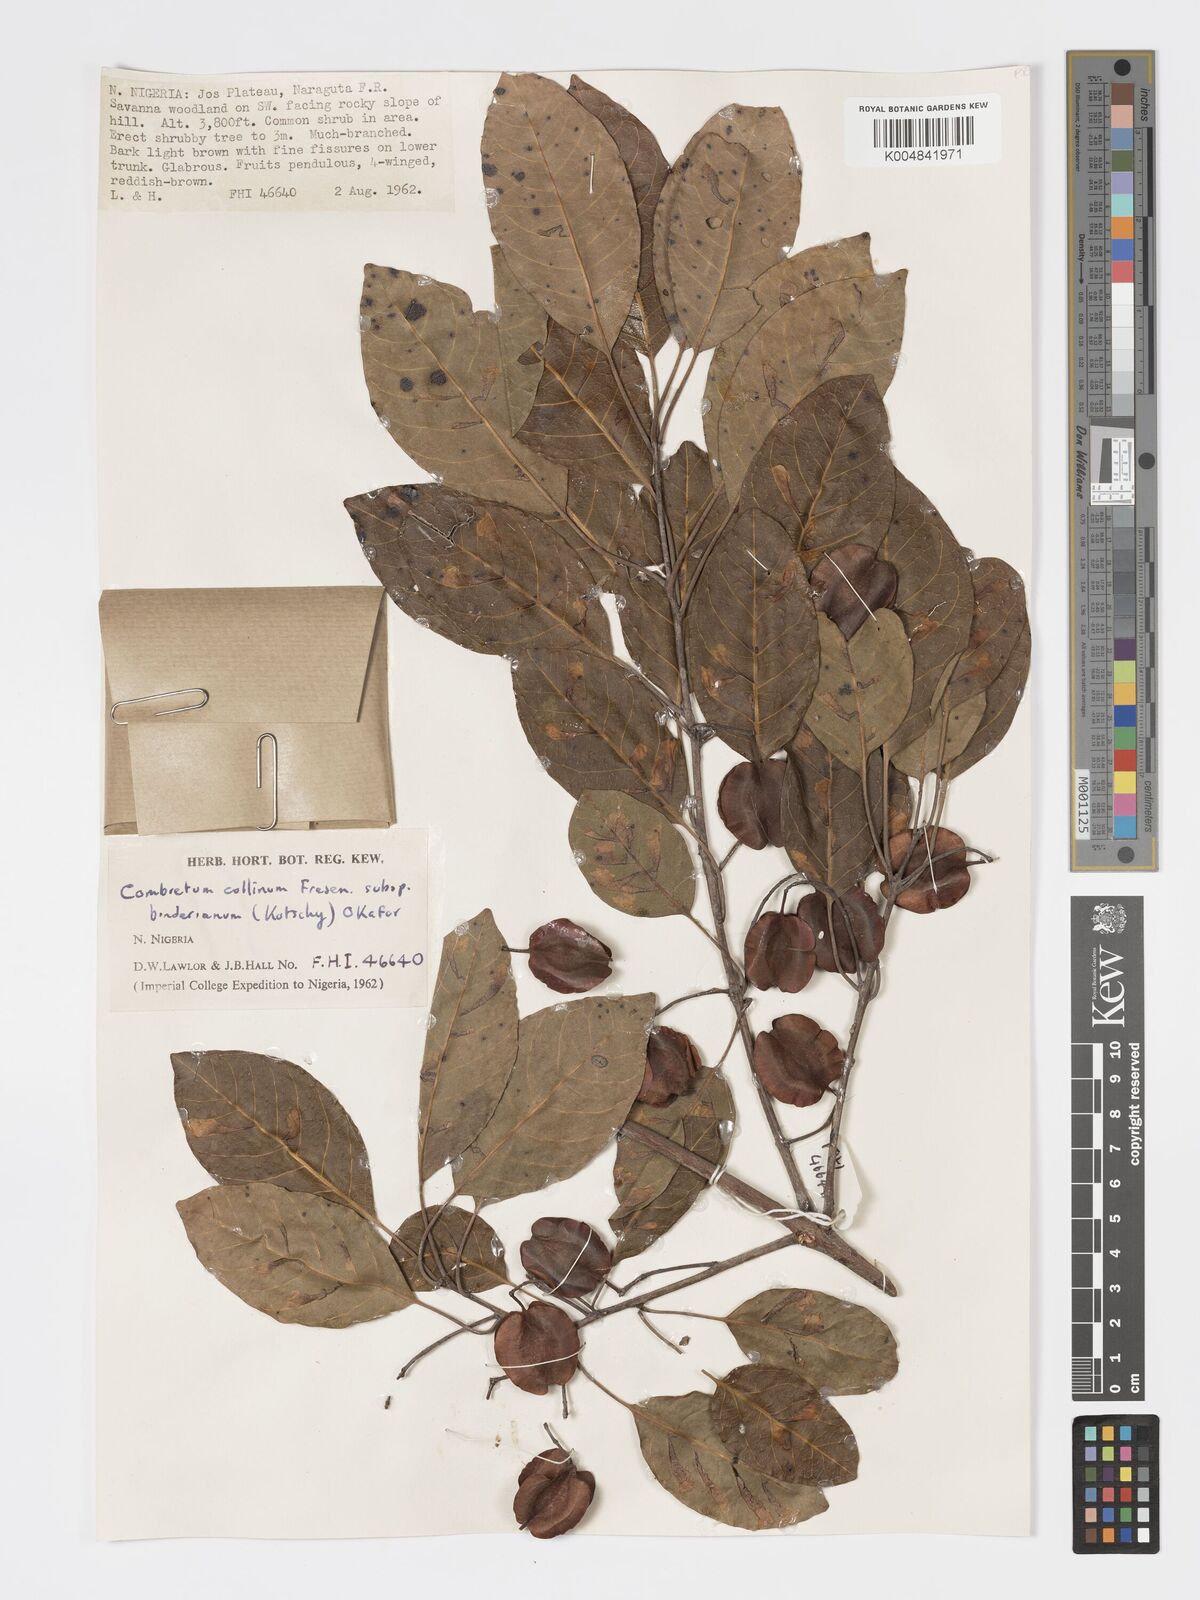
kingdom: Plantae
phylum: Tracheophyta
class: Magnoliopsida
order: Myrtales
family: Combretaceae
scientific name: Combretaceae
